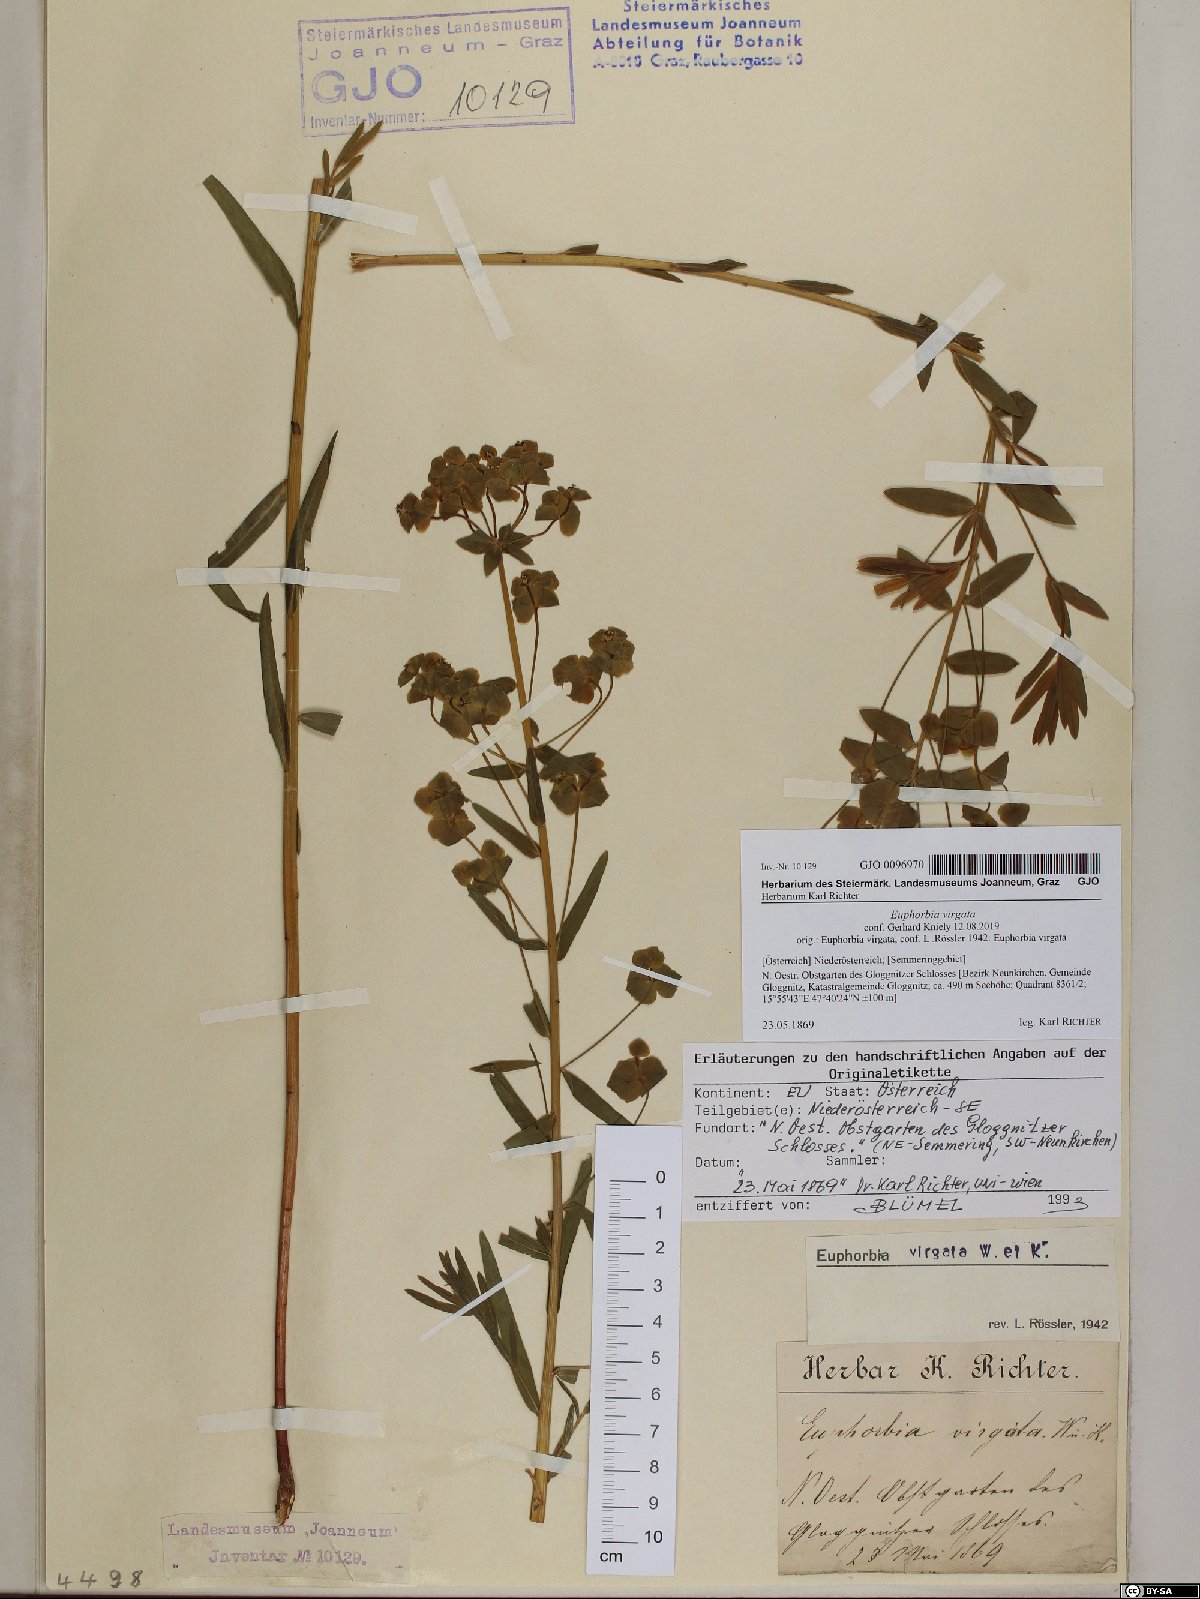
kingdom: Plantae
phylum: Tracheophyta
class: Magnoliopsida
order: Malpighiales
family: Euphorbiaceae
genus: Euphorbia
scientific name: Euphorbia virgata
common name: Leafy spurge
